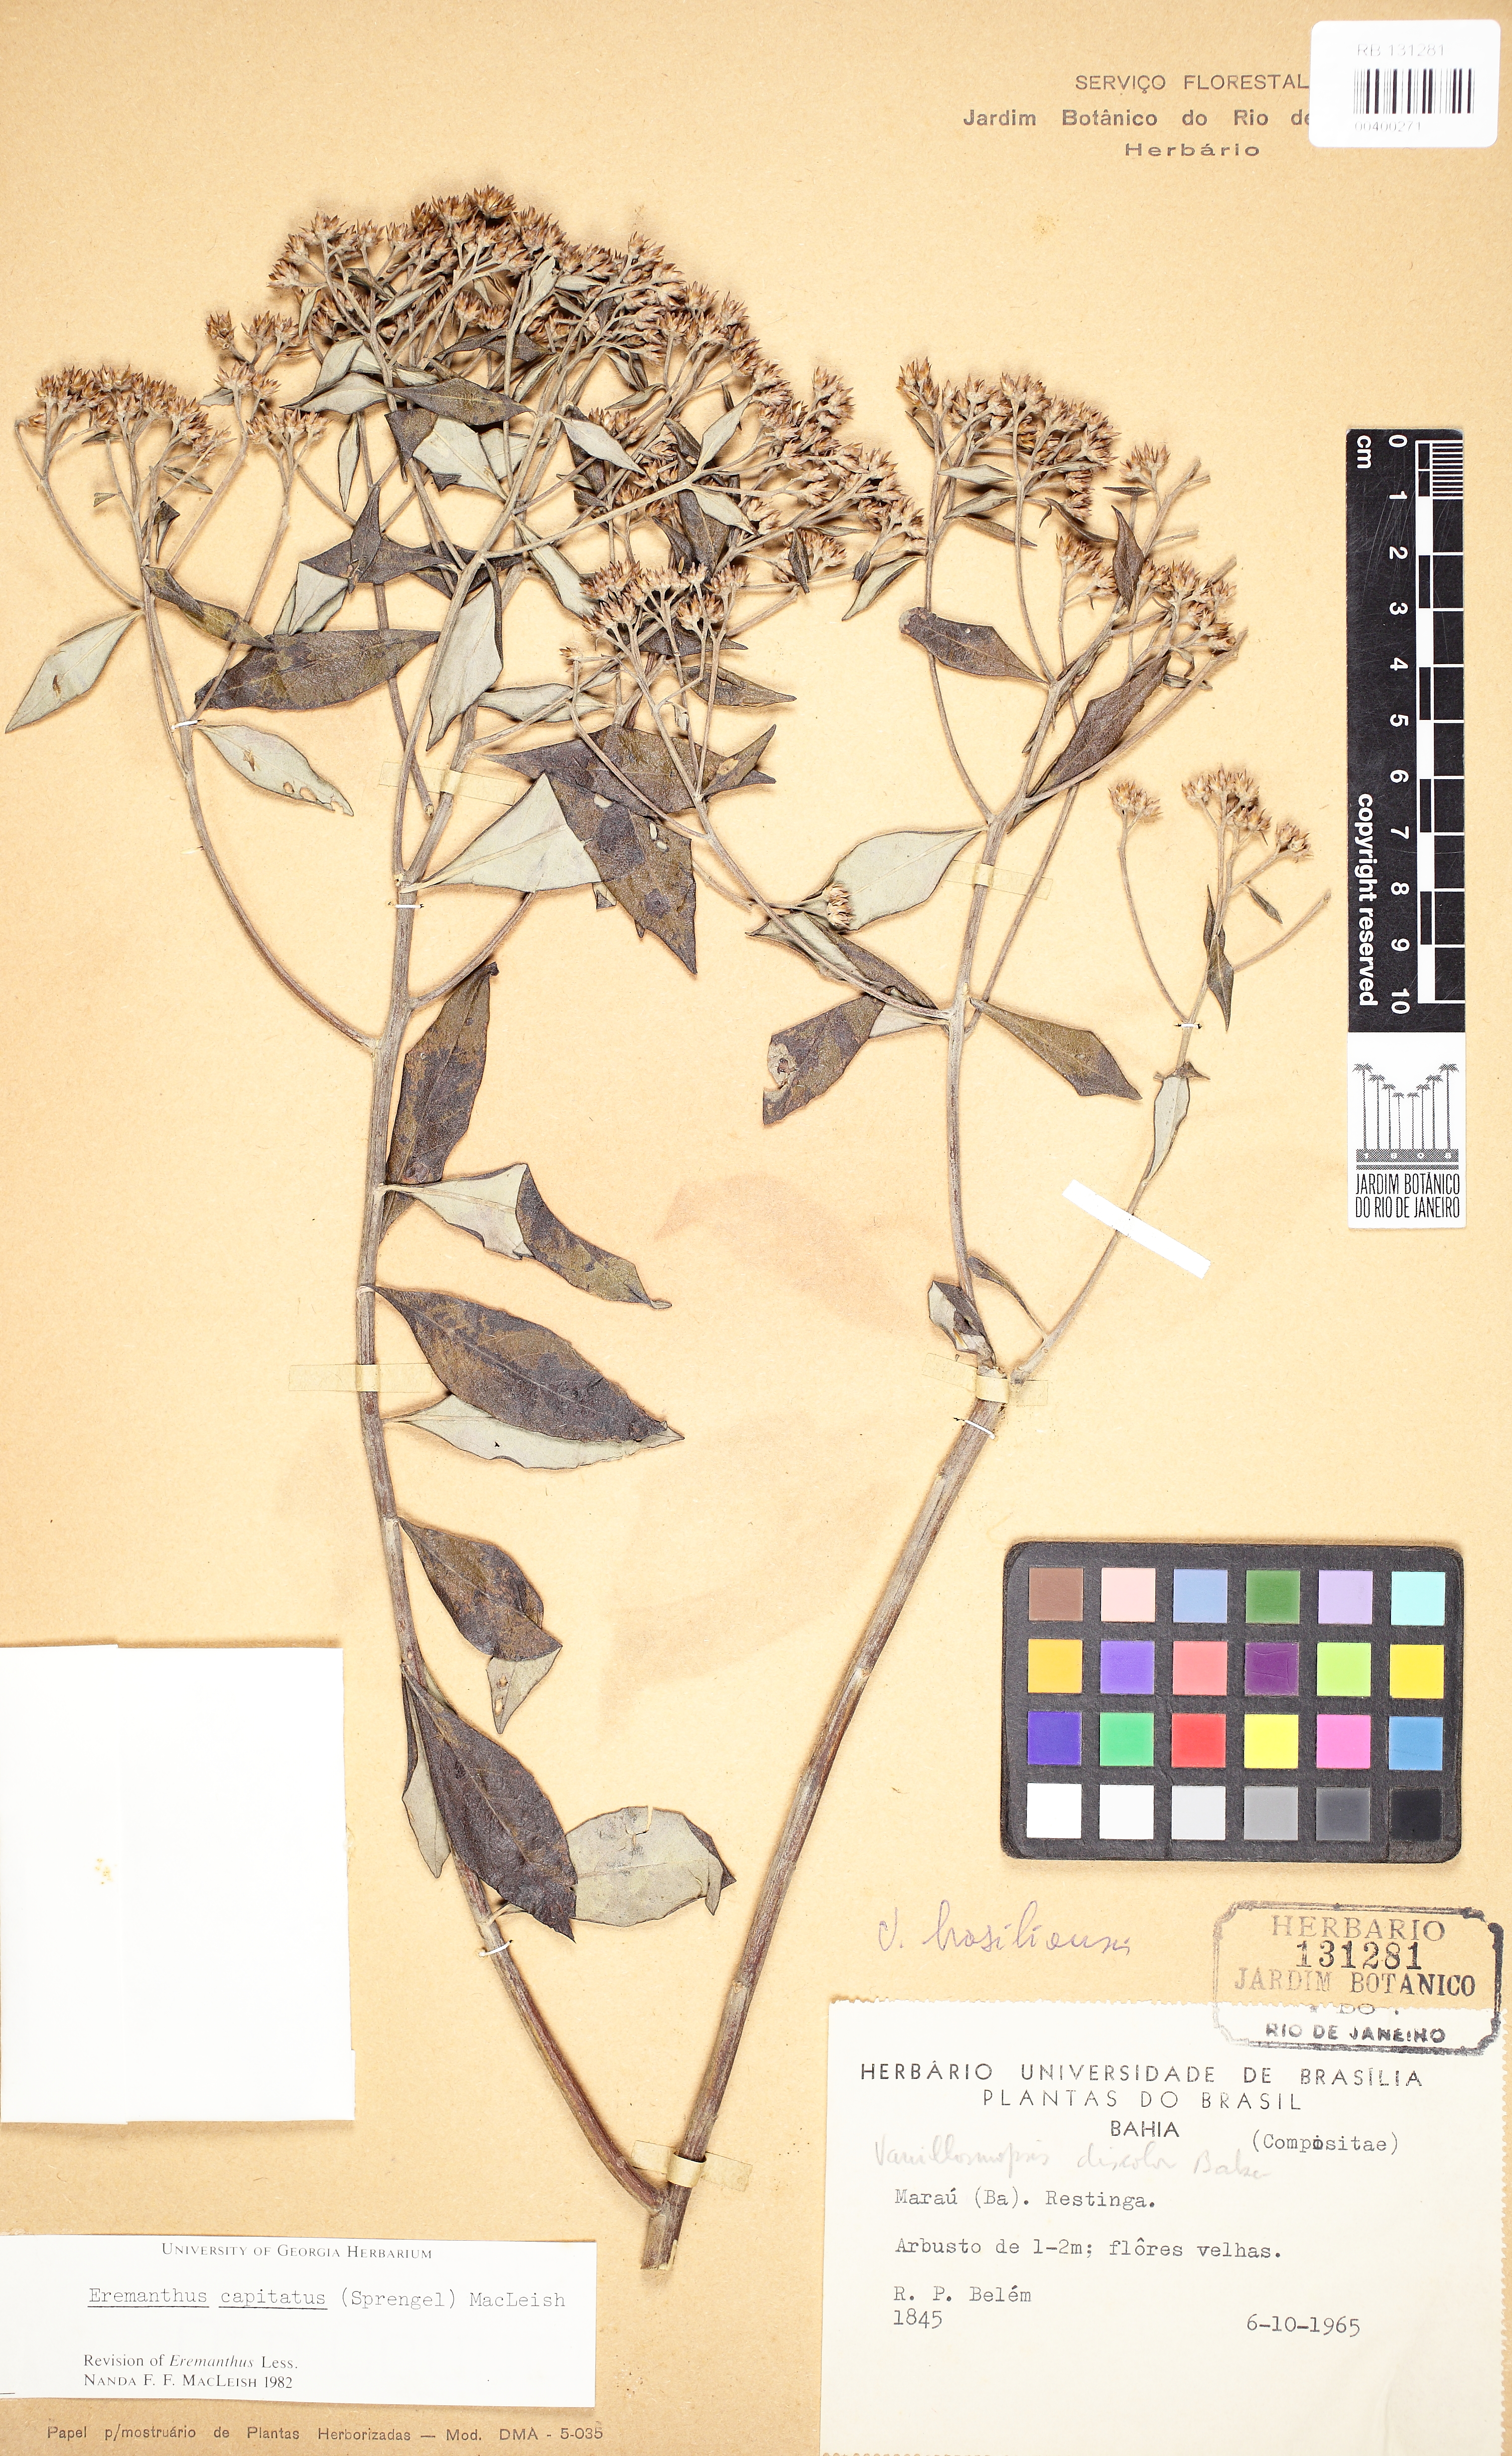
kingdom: Plantae
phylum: Tracheophyta
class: Magnoliopsida
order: Asterales
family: Asteraceae
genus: Eremanthus
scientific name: Eremanthus capitatus
